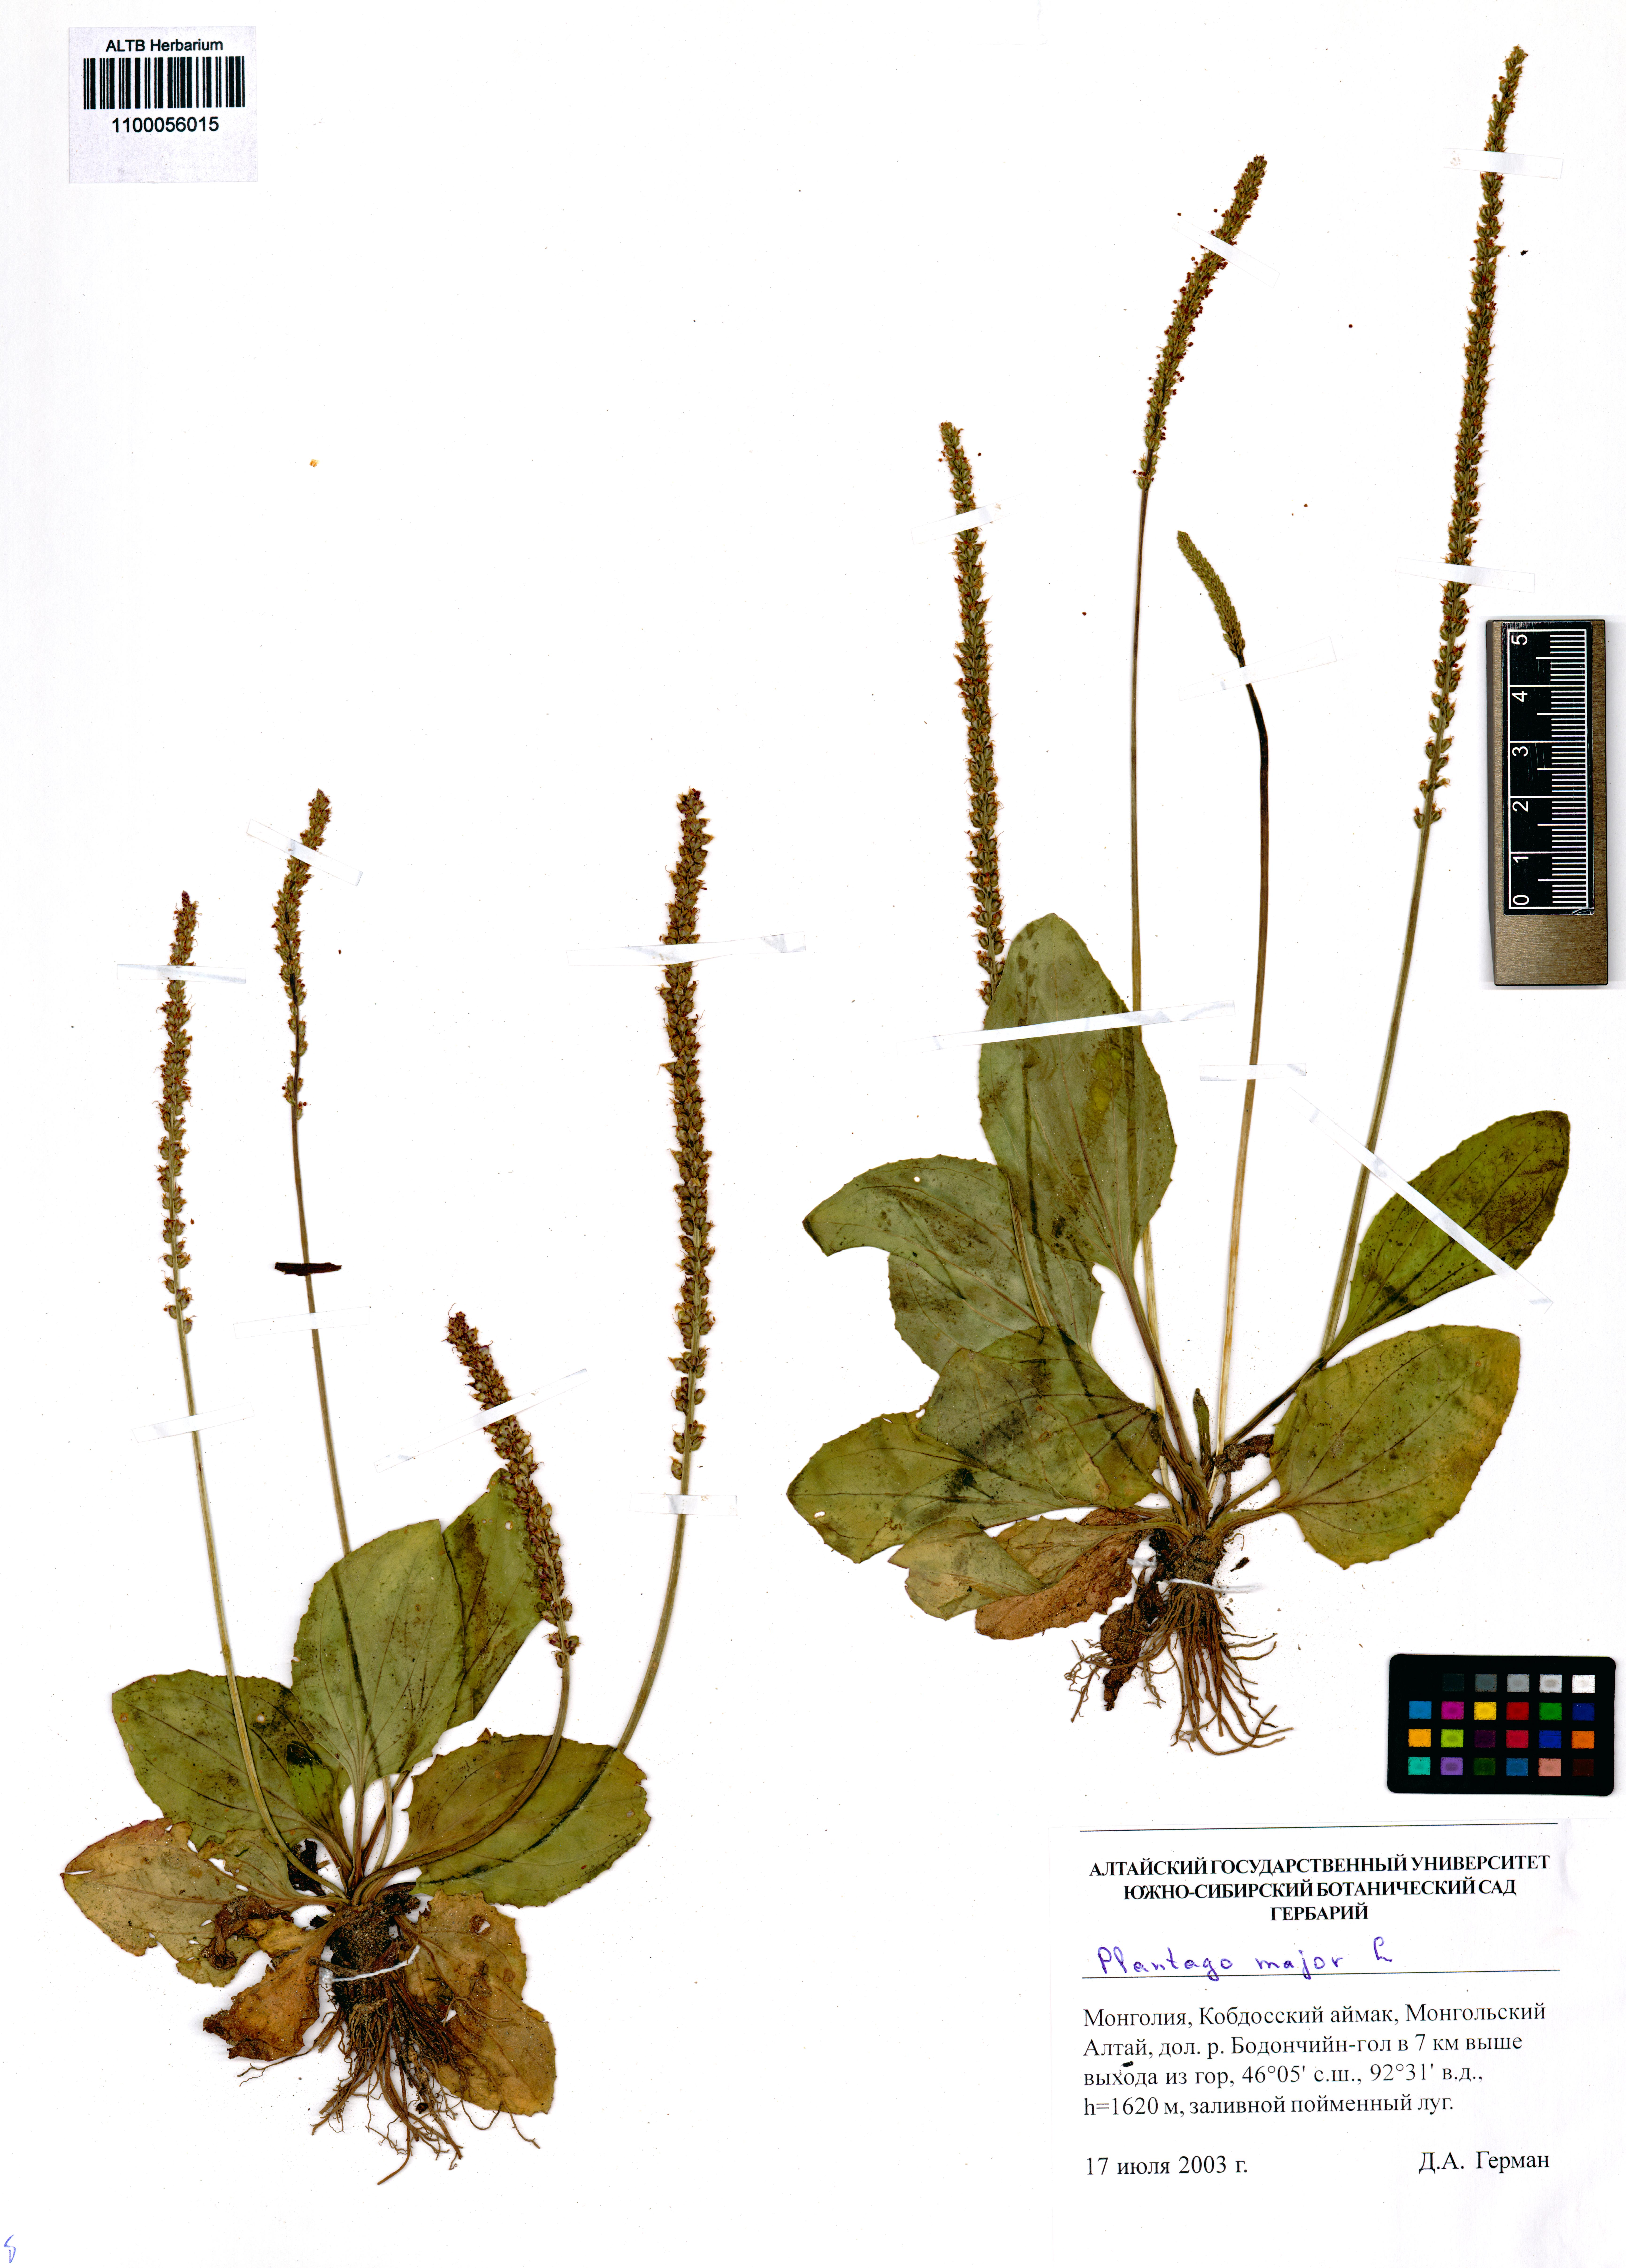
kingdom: Plantae
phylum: Tracheophyta
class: Magnoliopsida
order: Lamiales
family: Plantaginaceae
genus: Plantago
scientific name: Plantago major
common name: Common plantain
